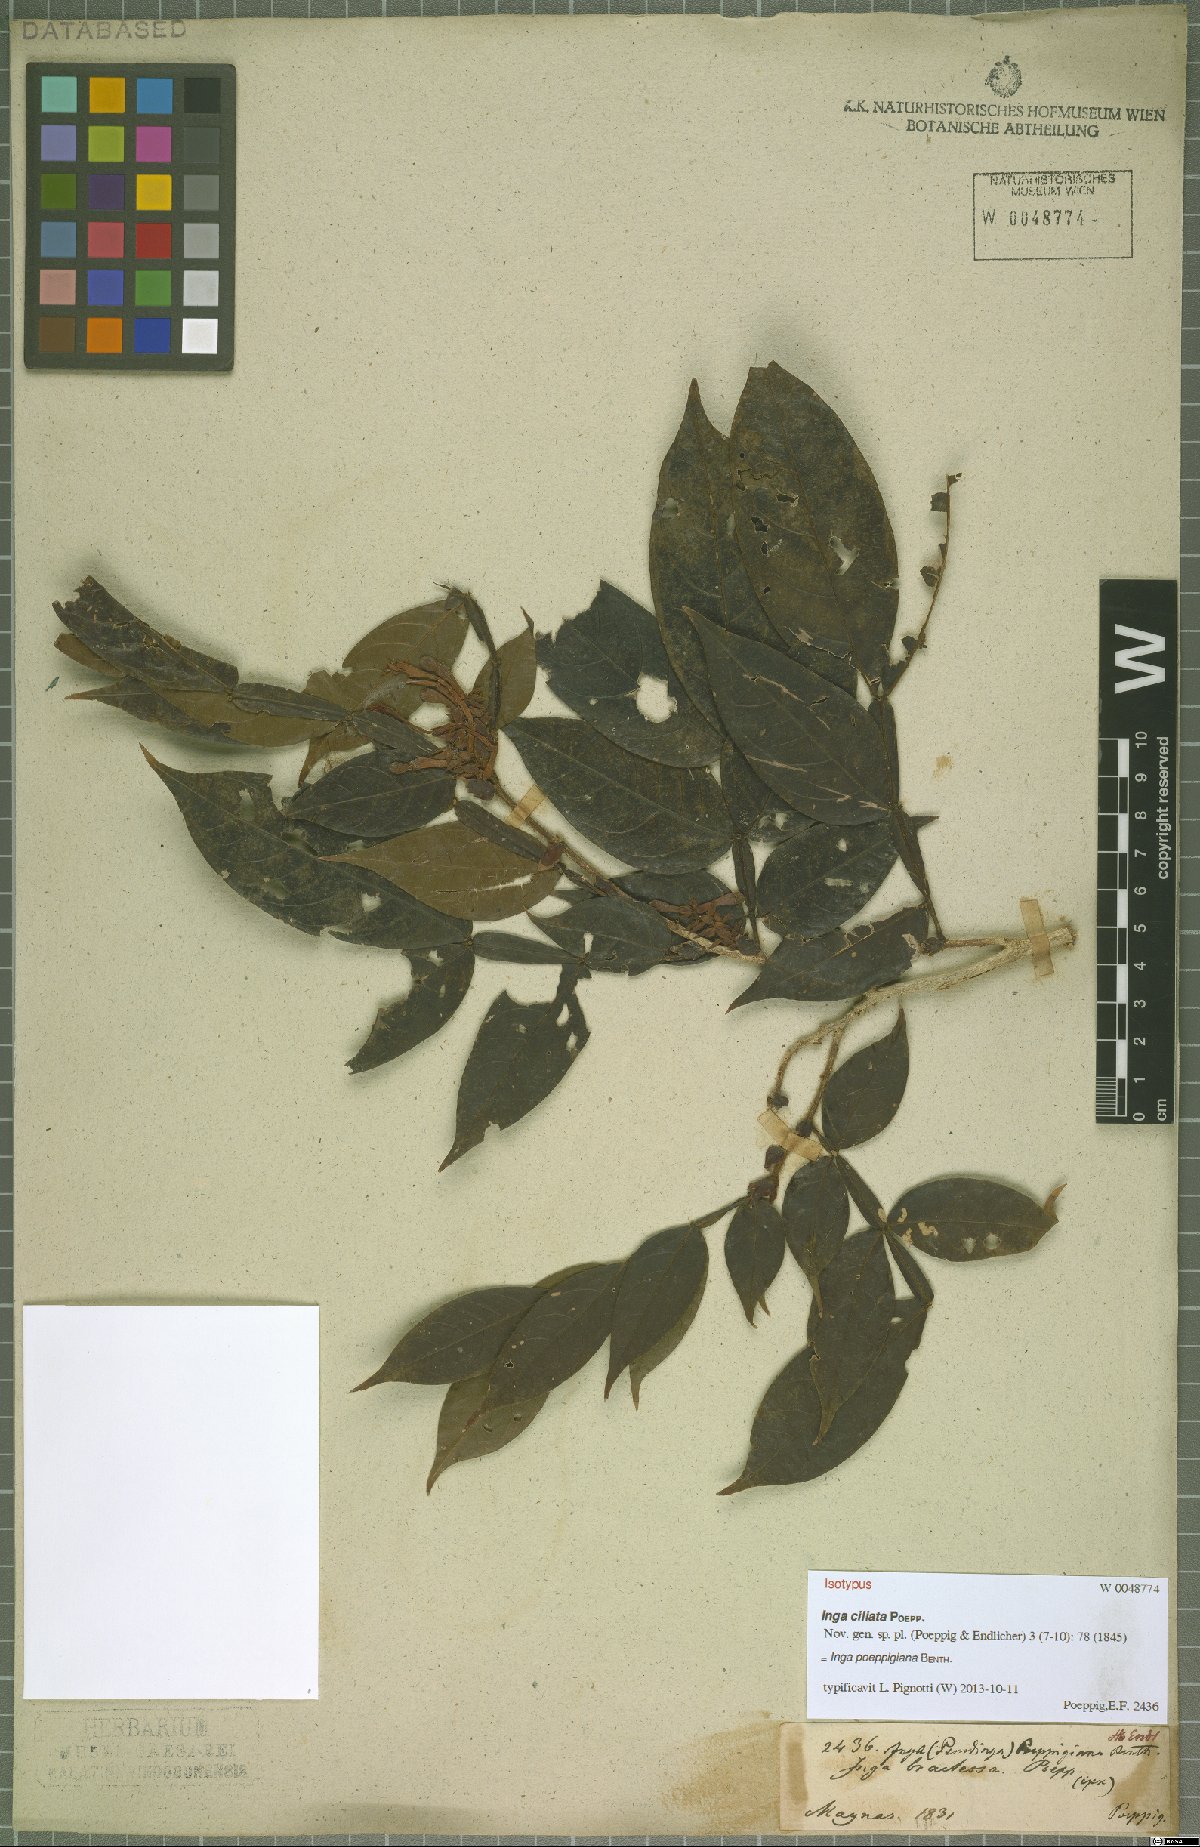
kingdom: Plantae
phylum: Tracheophyta
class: Magnoliopsida
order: Fabales
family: Fabaceae
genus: Inga
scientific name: Inga poeppigiana
